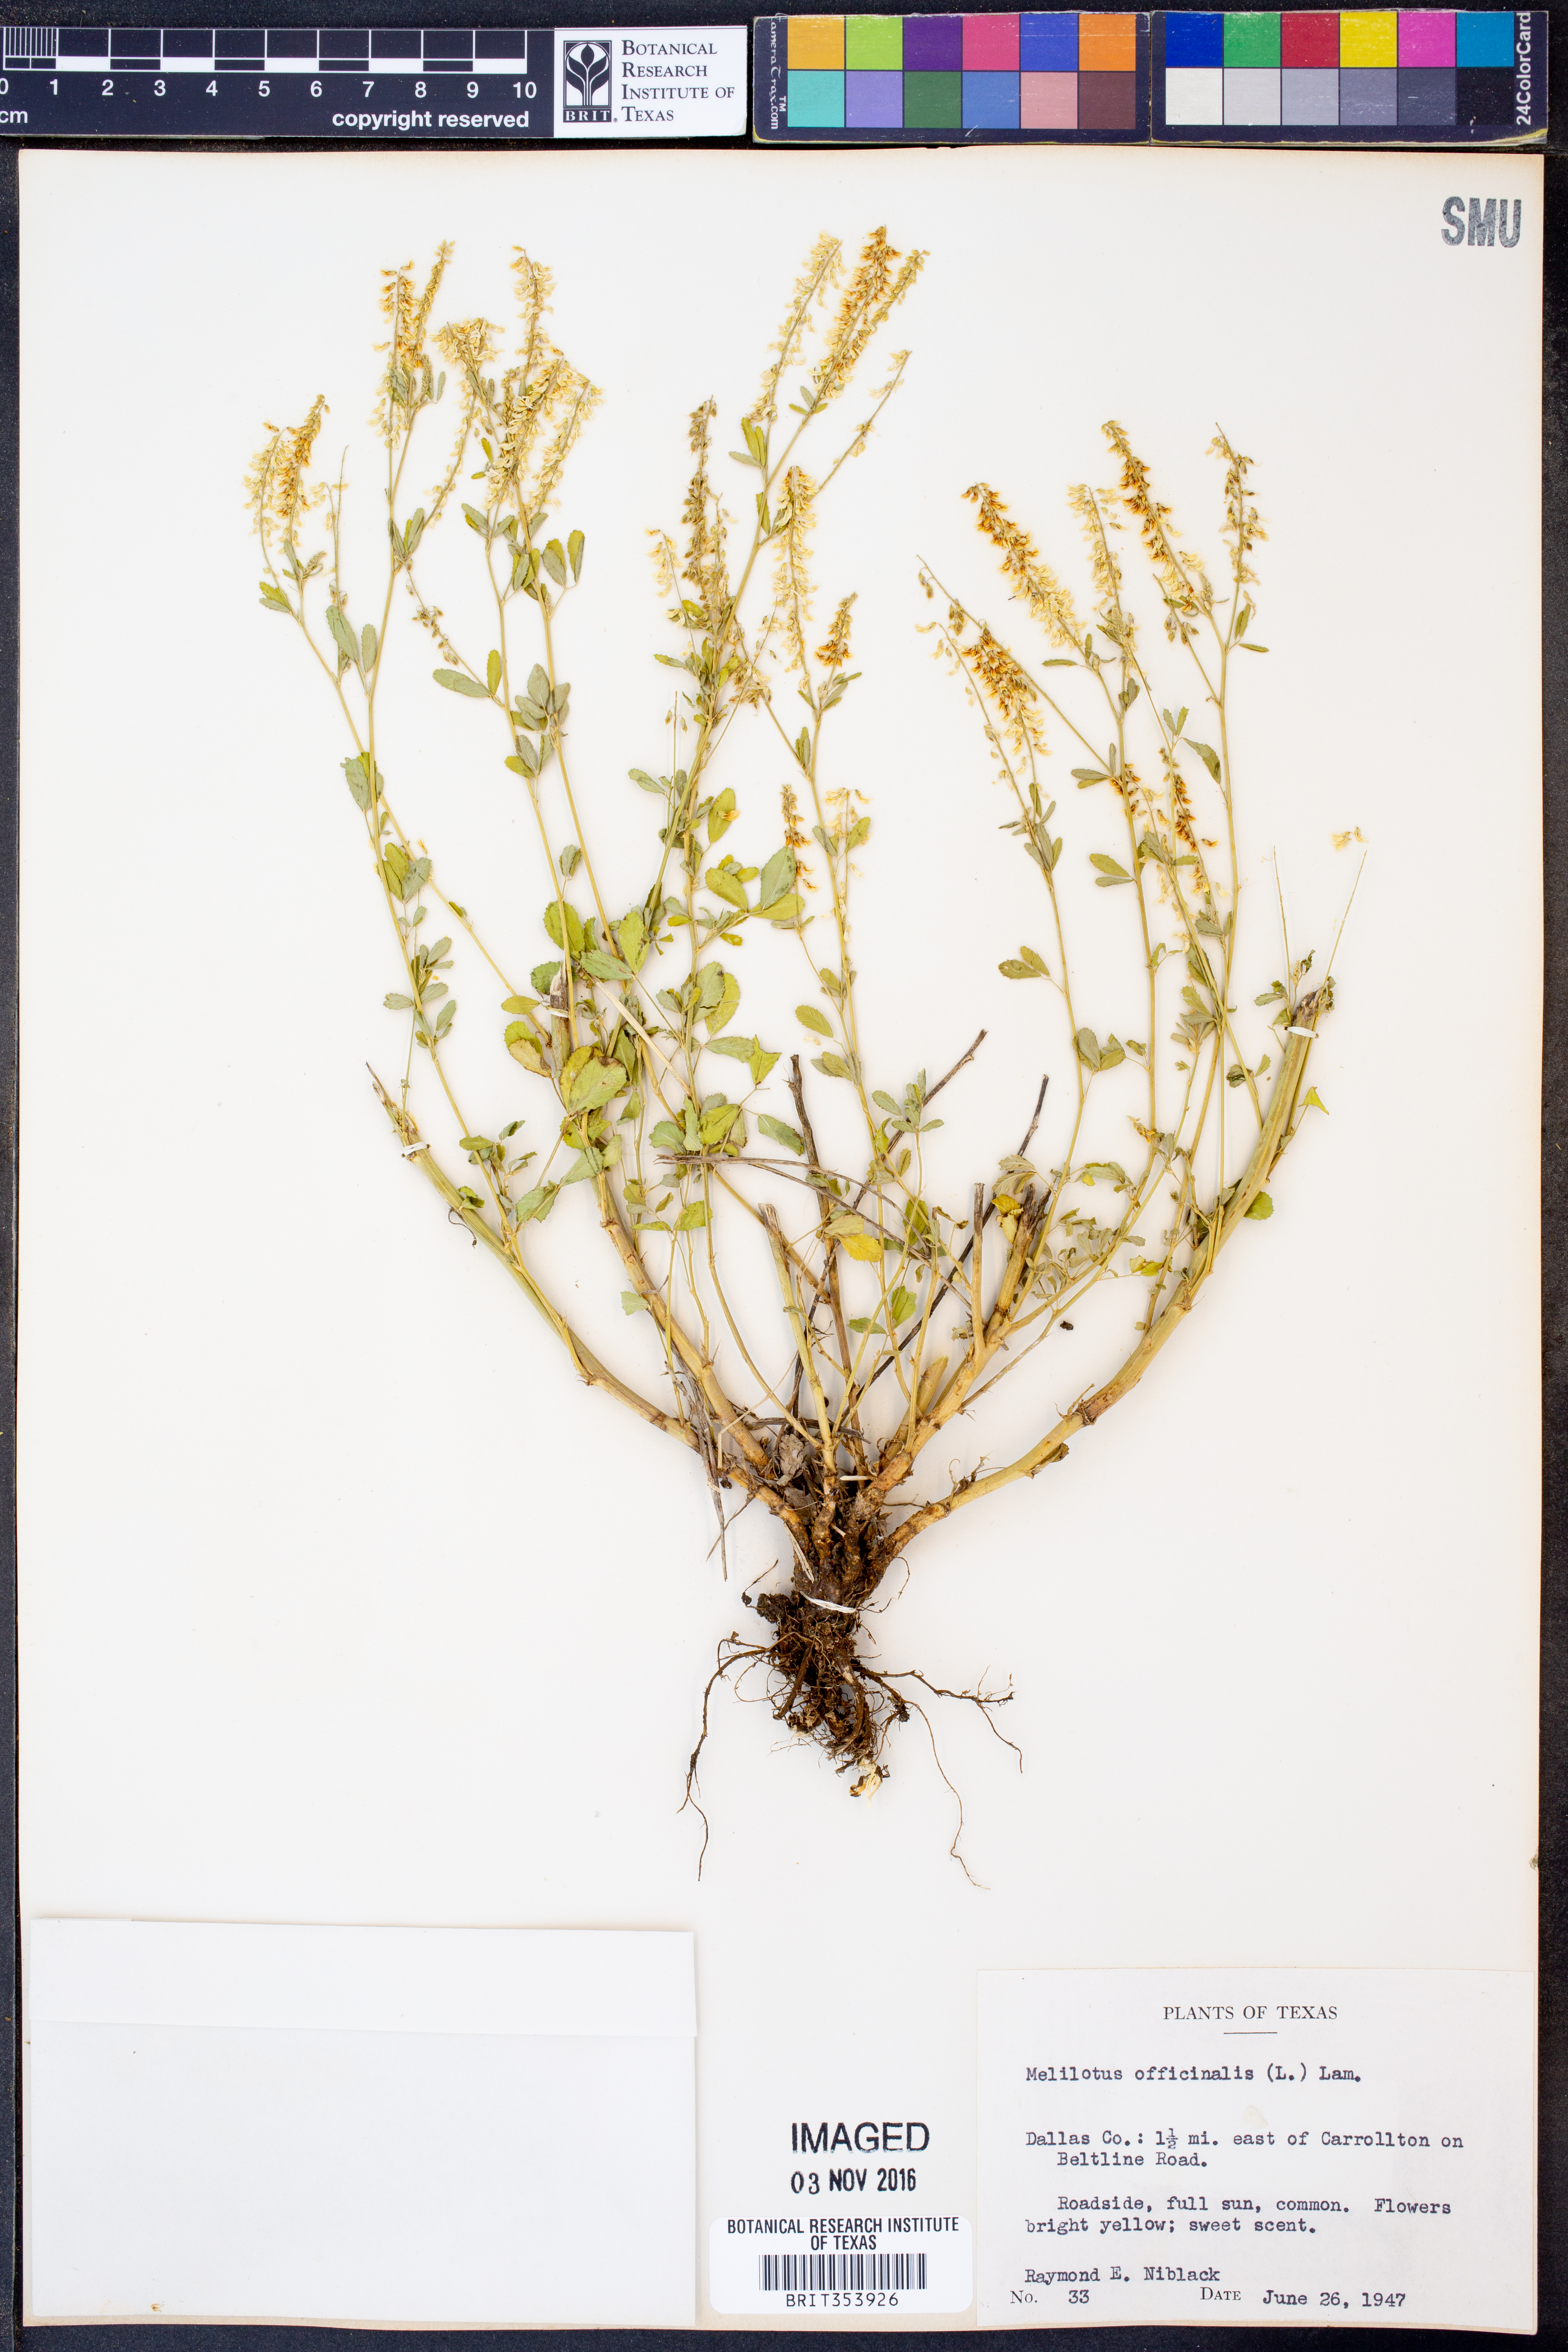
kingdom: Plantae
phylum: Tracheophyta
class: Magnoliopsida
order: Fabales
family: Fabaceae
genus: Melilotus
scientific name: Melilotus officinalis
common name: Sweetclover
